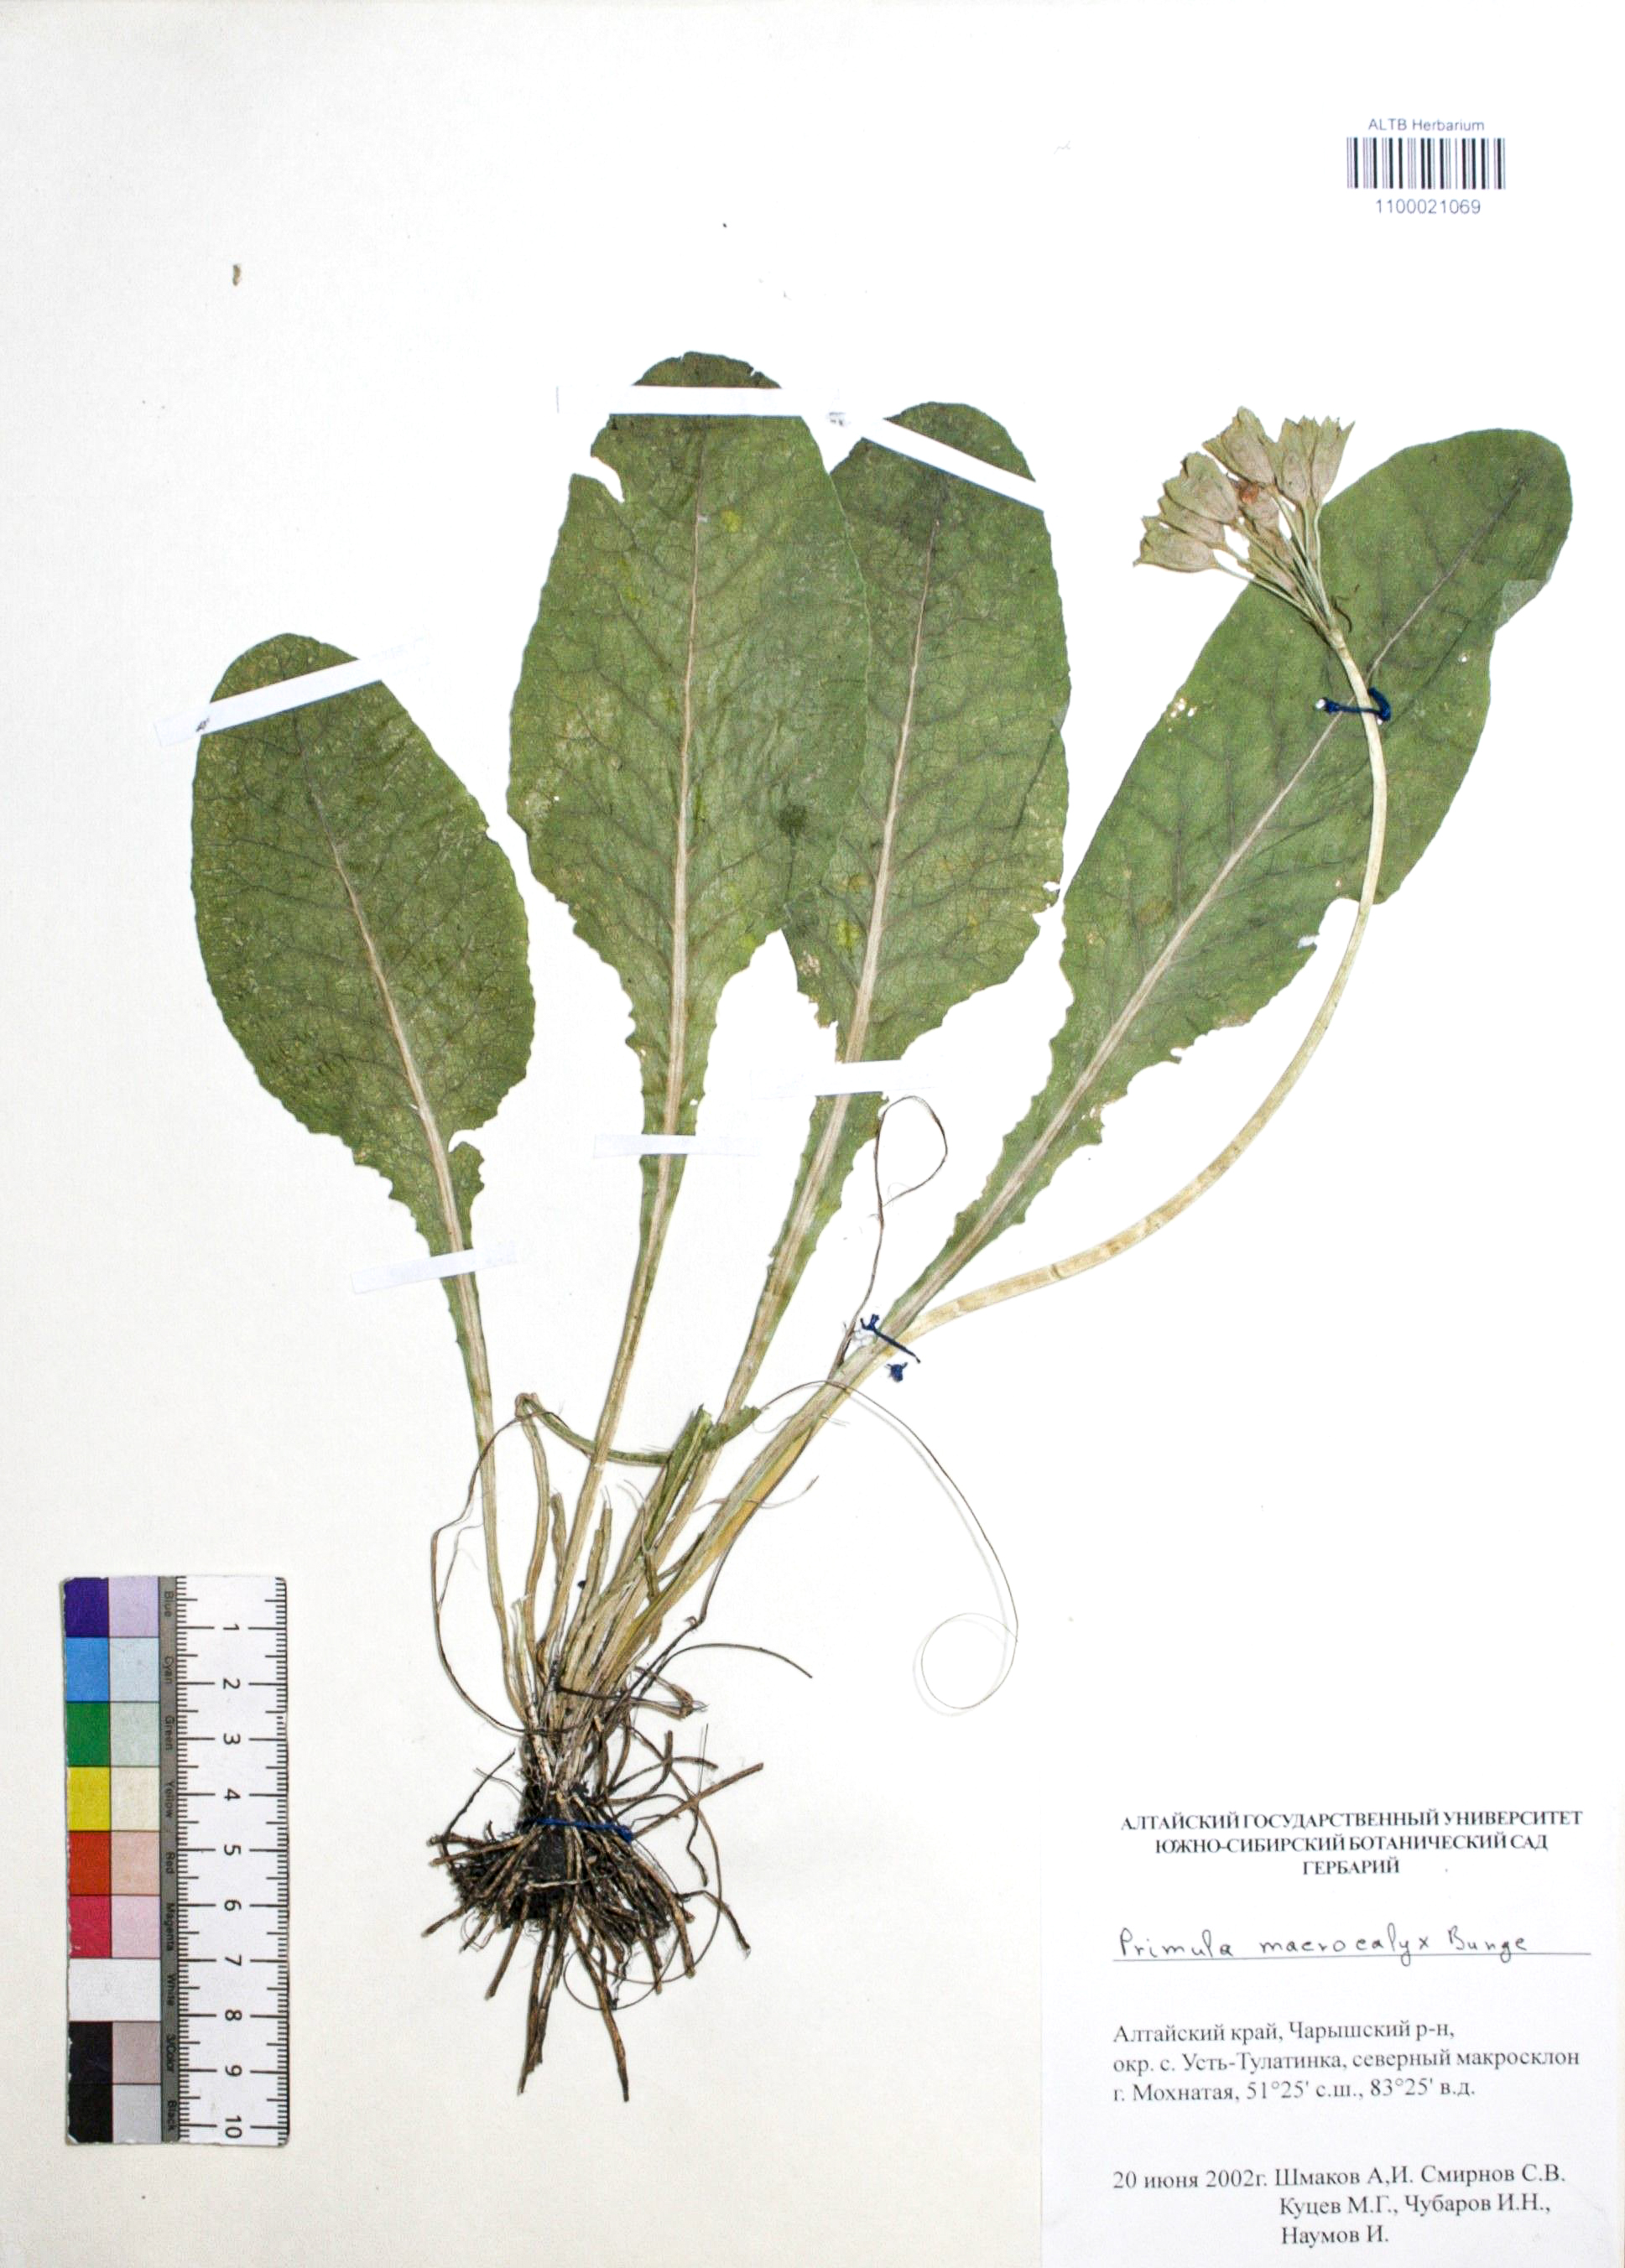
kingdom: Plantae
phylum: Tracheophyta
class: Magnoliopsida
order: Ericales
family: Primulaceae
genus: Primula
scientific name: Primula veris
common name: Cowslip
